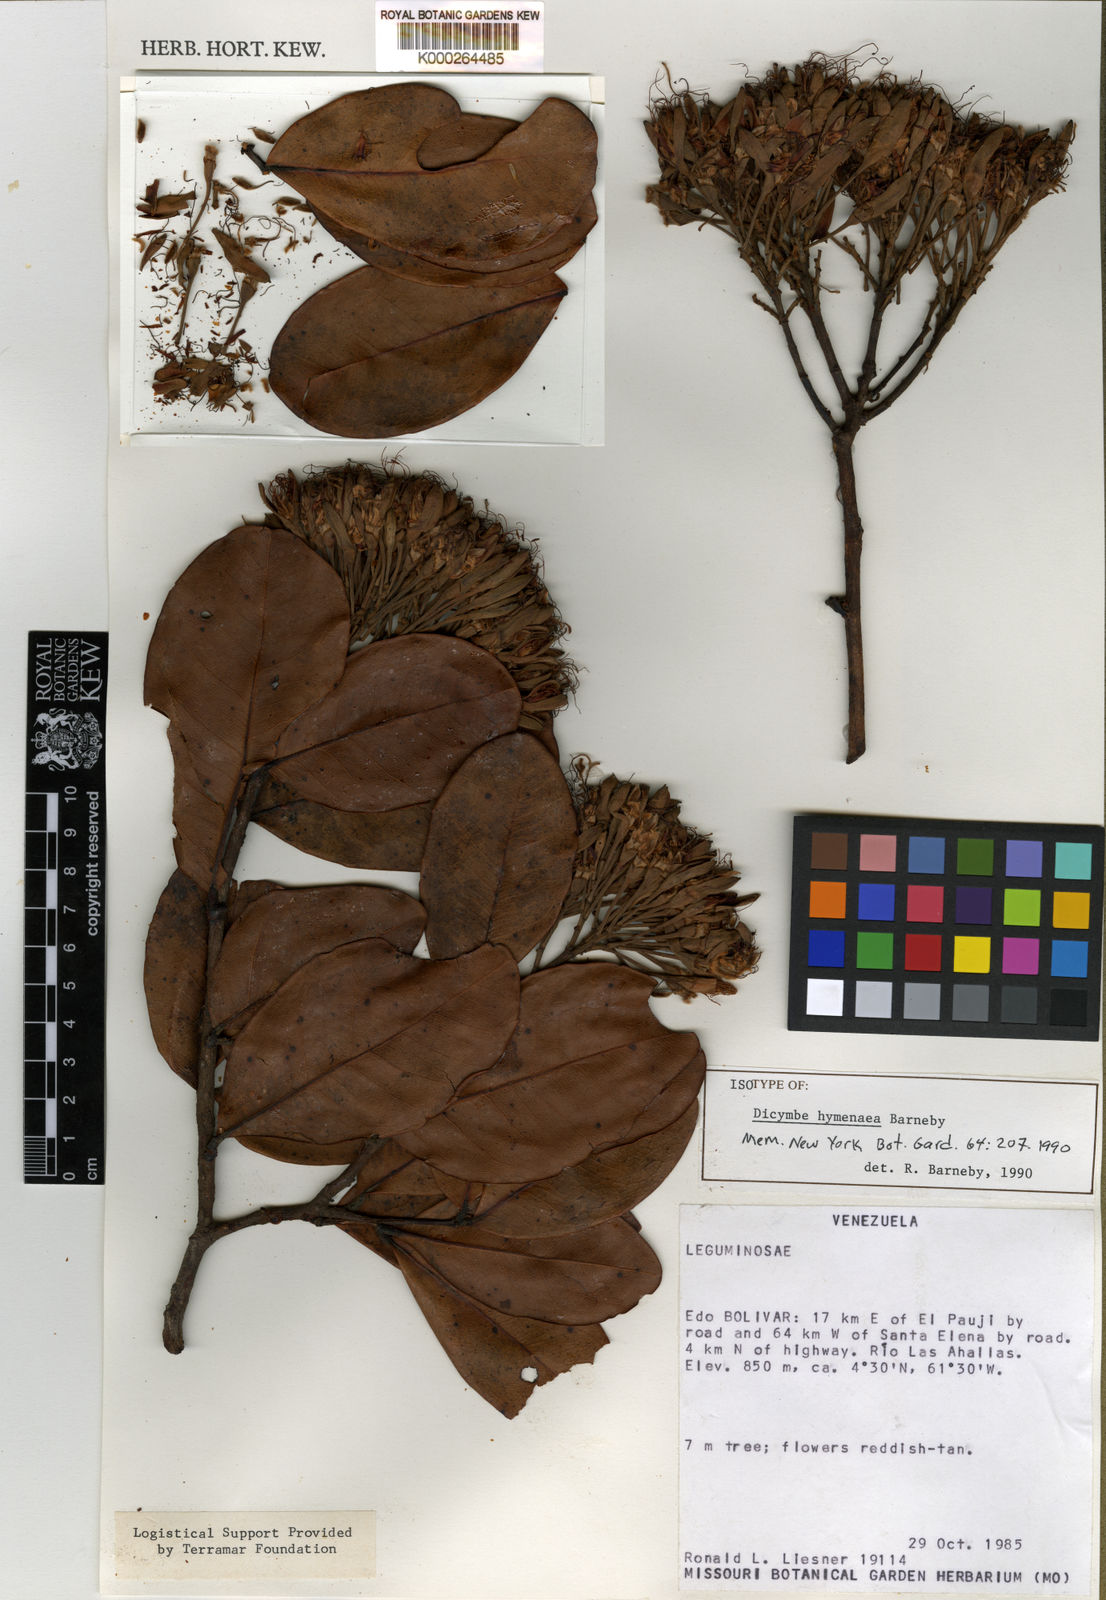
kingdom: Plantae
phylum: Tracheophyta
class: Magnoliopsida
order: Fabales
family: Fabaceae
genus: Dicymbe
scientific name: Dicymbe hymenaea
